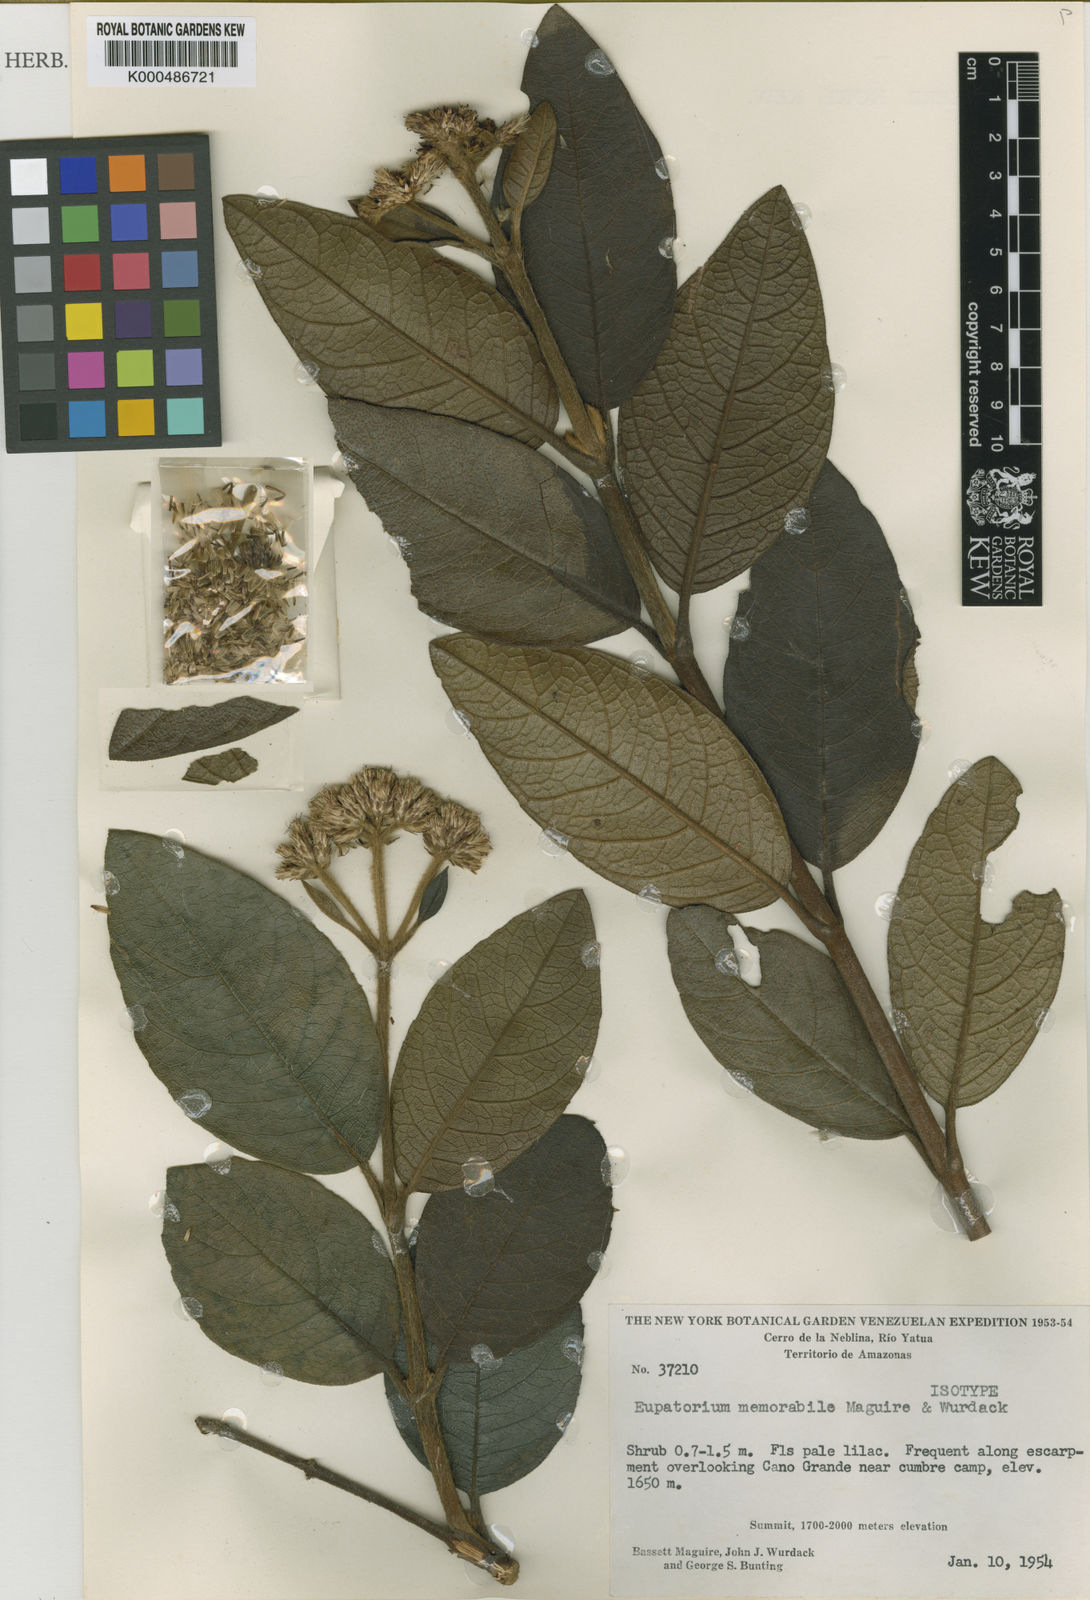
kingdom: Plantae
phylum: Tracheophyta
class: Magnoliopsida
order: Asterales
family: Asteraceae
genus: Imeria
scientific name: Imeria memorabilis
